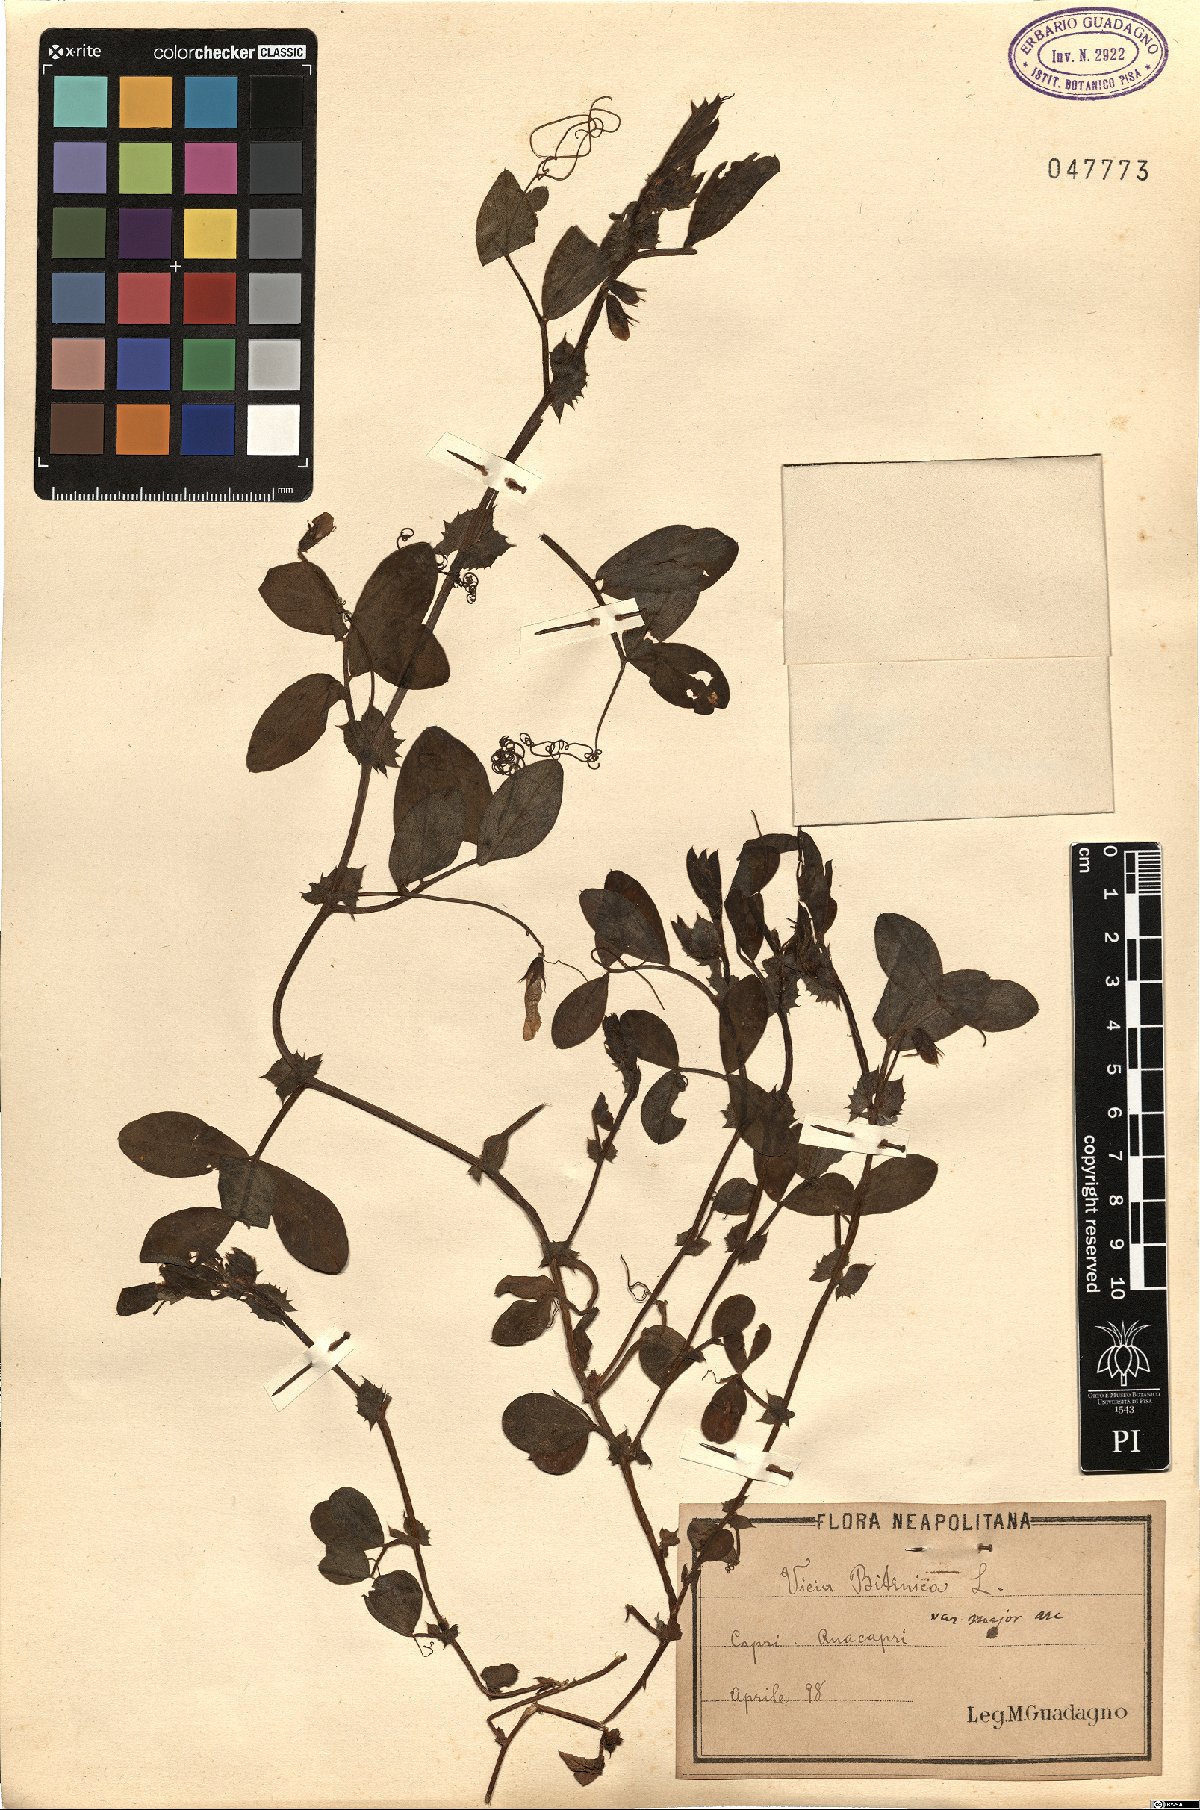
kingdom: Plantae
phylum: Tracheophyta
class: Magnoliopsida
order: Fabales
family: Fabaceae
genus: Vicia
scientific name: Vicia bithynica
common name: Bithynian vetch
